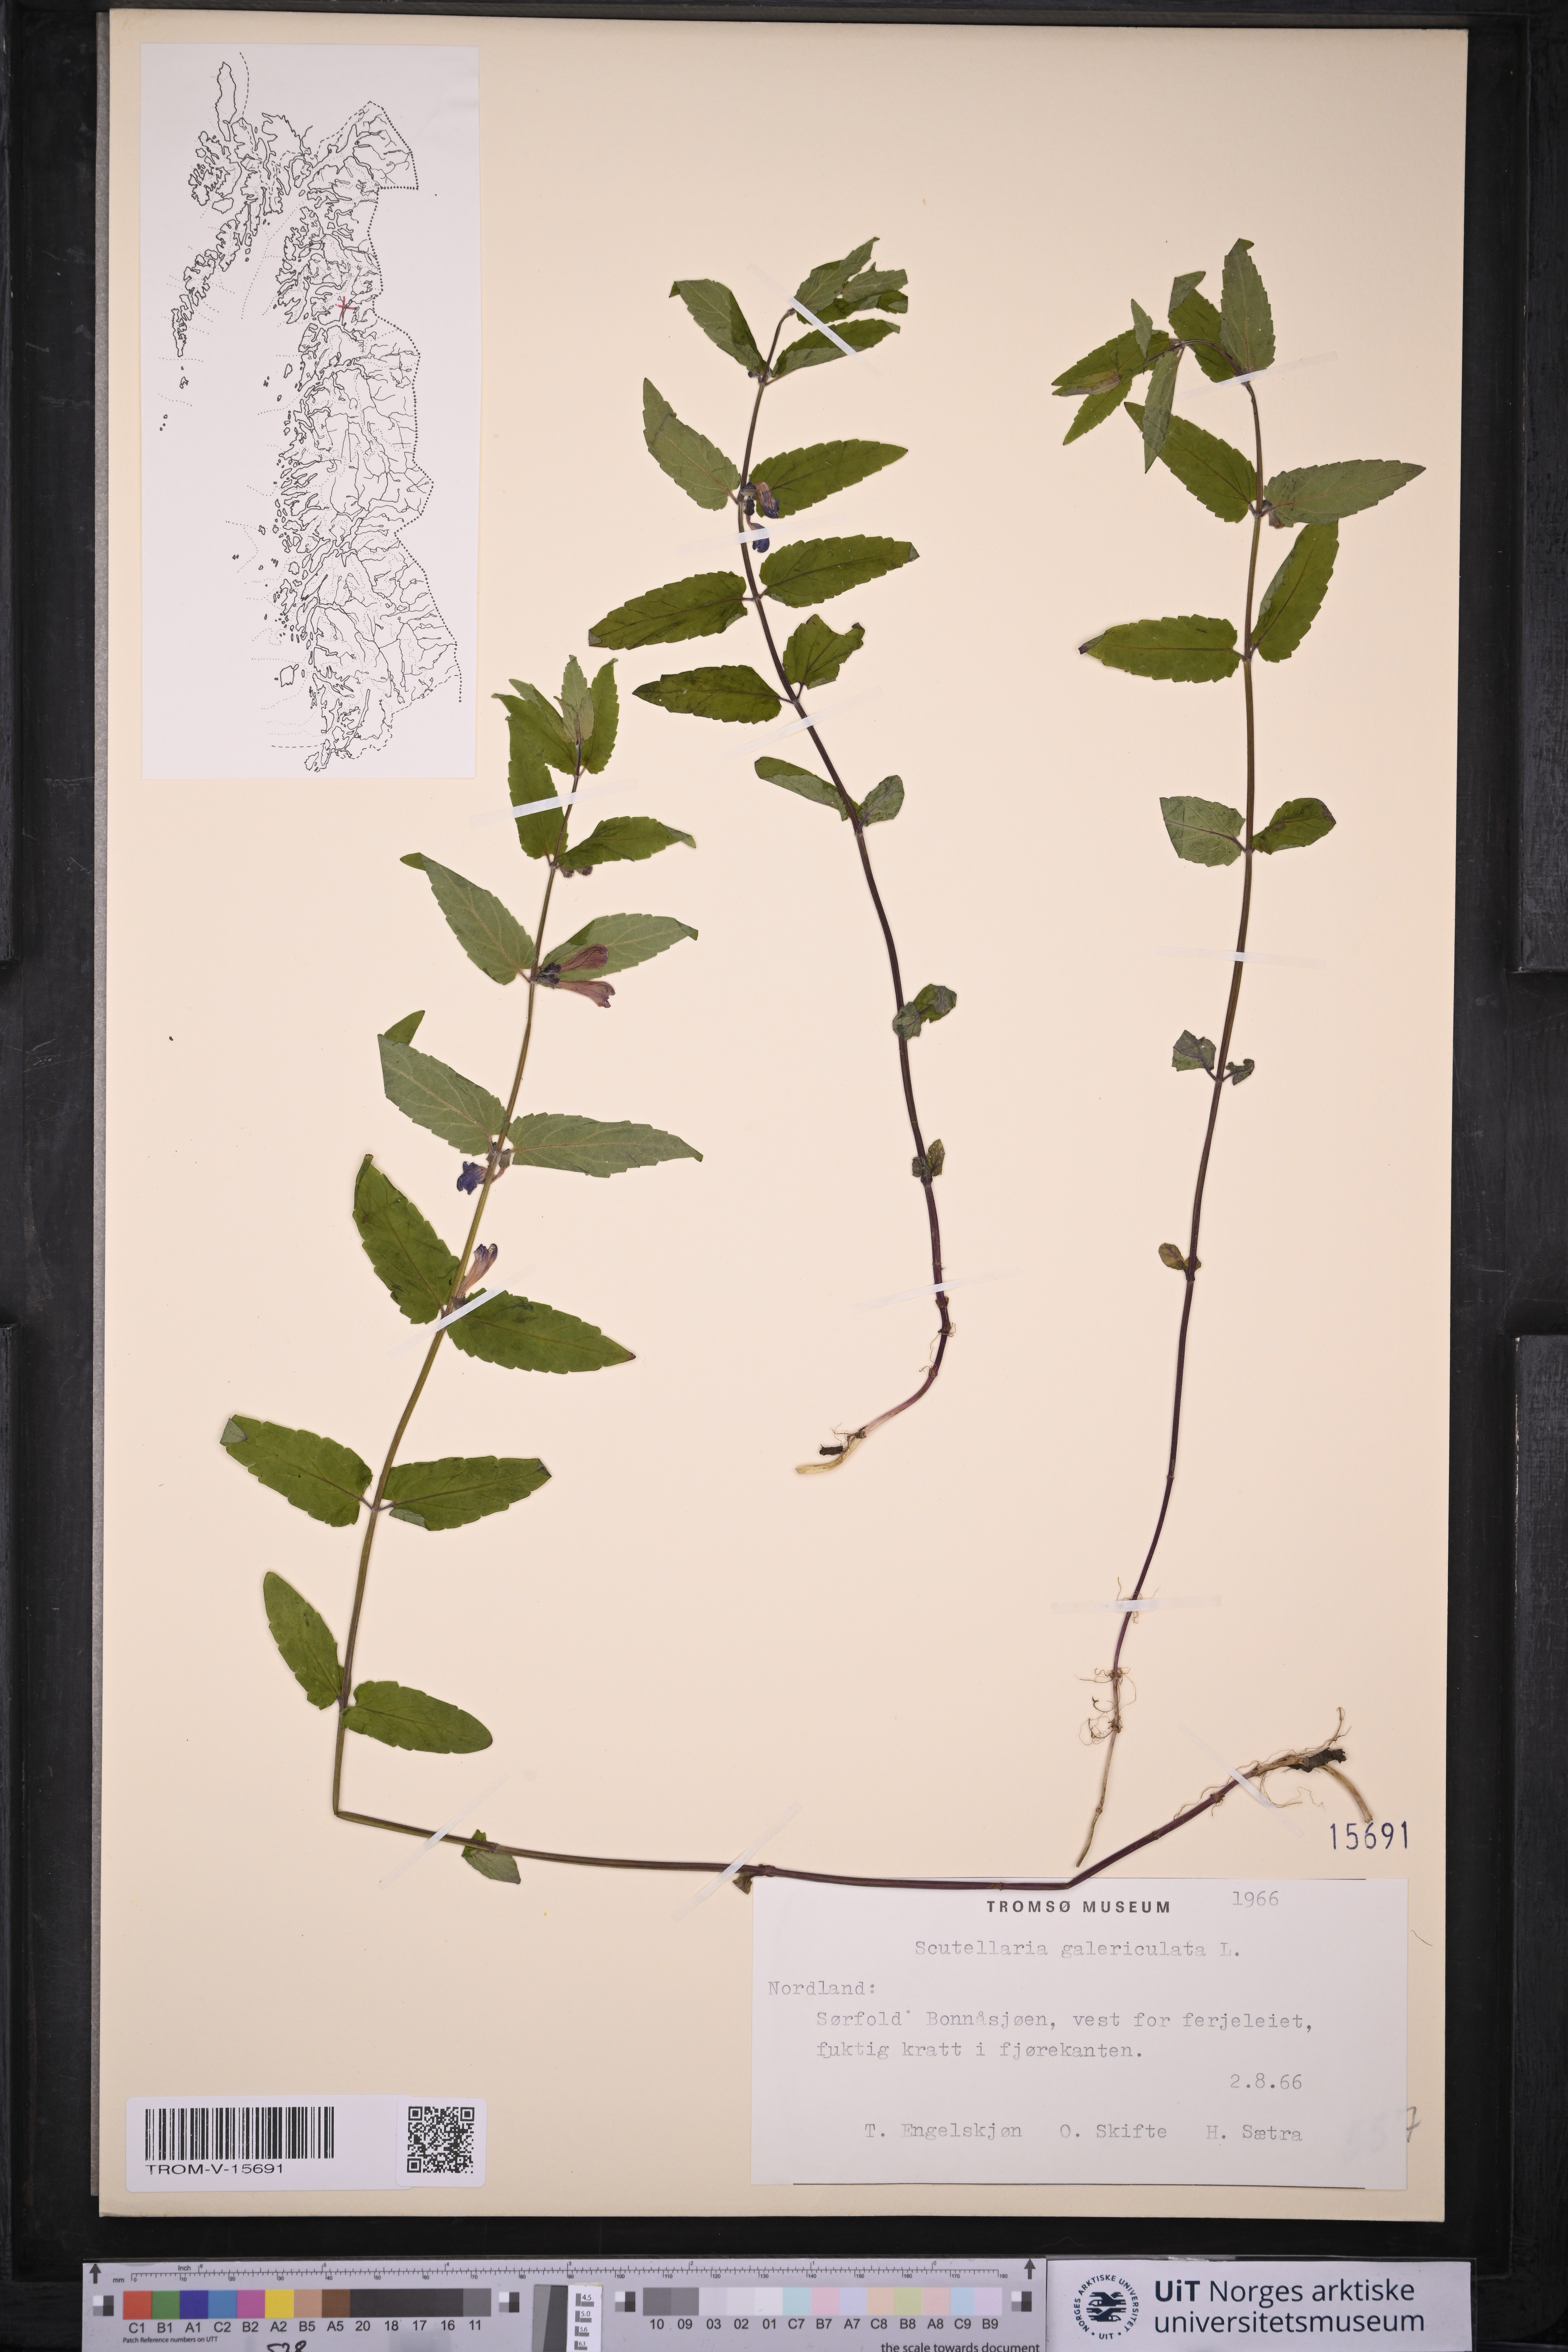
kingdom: Plantae
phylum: Tracheophyta
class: Magnoliopsida
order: Lamiales
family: Lamiaceae
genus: Scutellaria
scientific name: Scutellaria galericulata
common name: Skullcap
